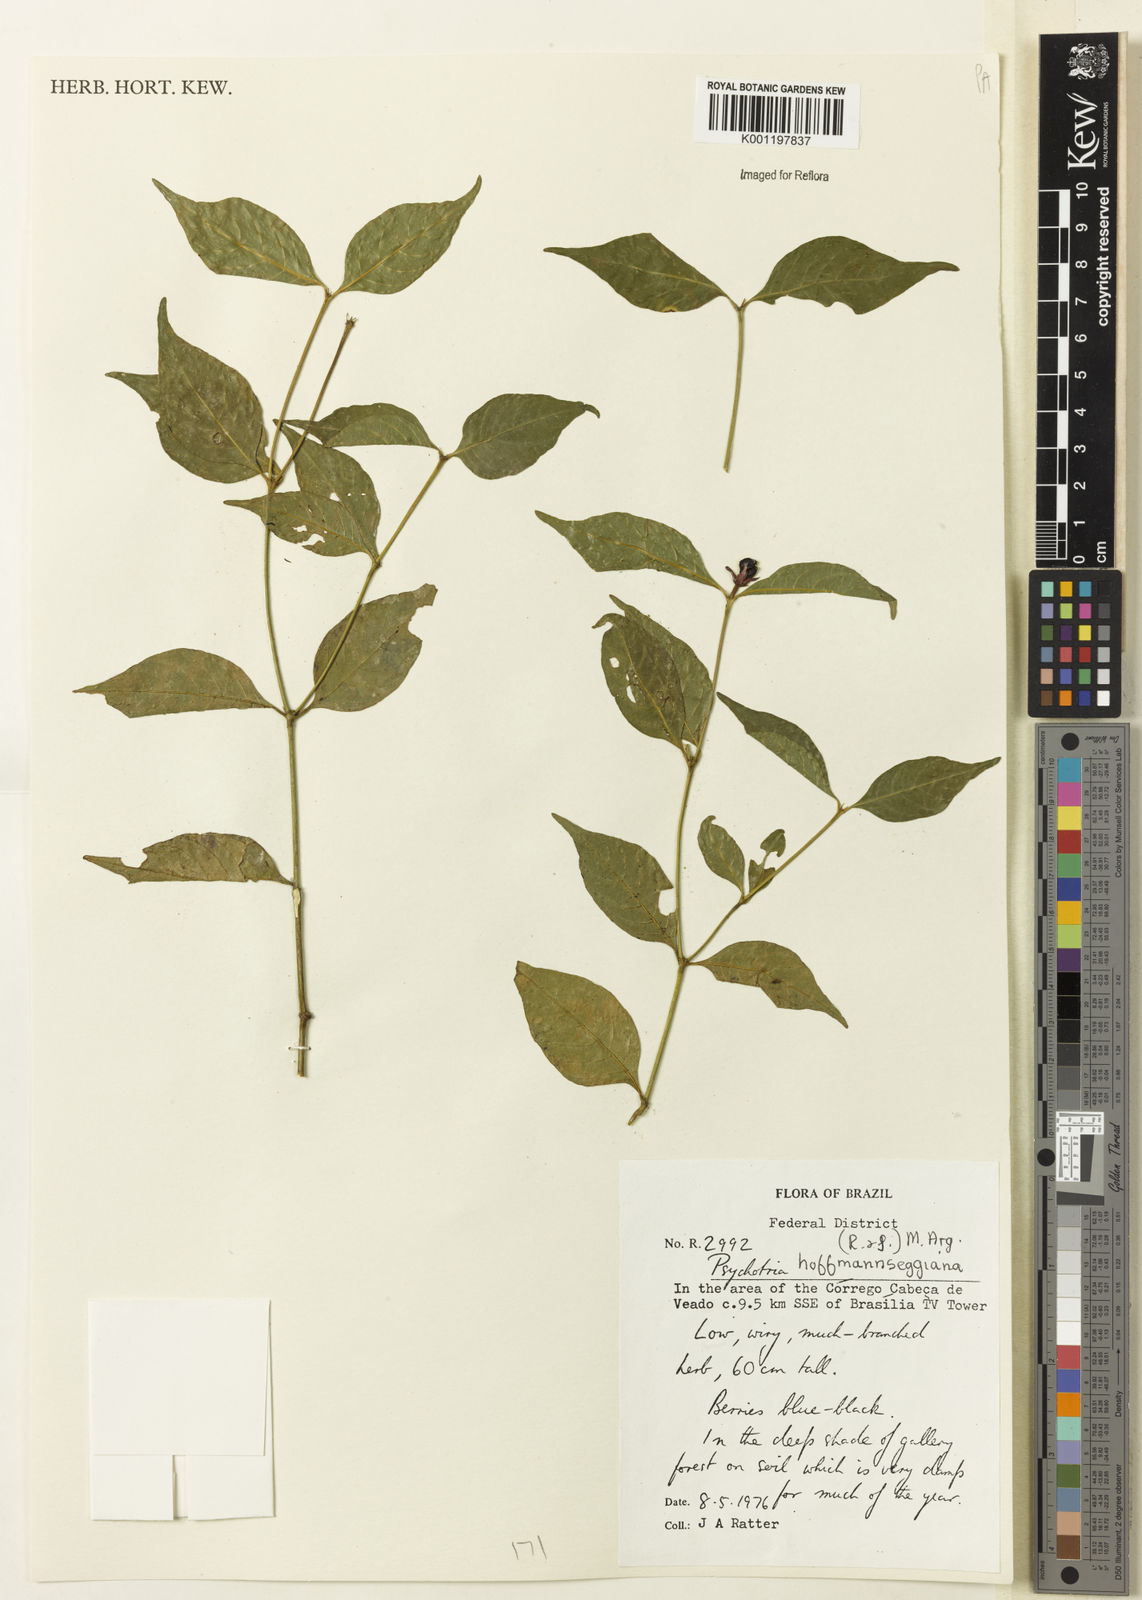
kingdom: Plantae
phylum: Tracheophyta
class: Magnoliopsida
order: Gentianales
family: Rubiaceae
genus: Psychotria
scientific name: Psychotria
